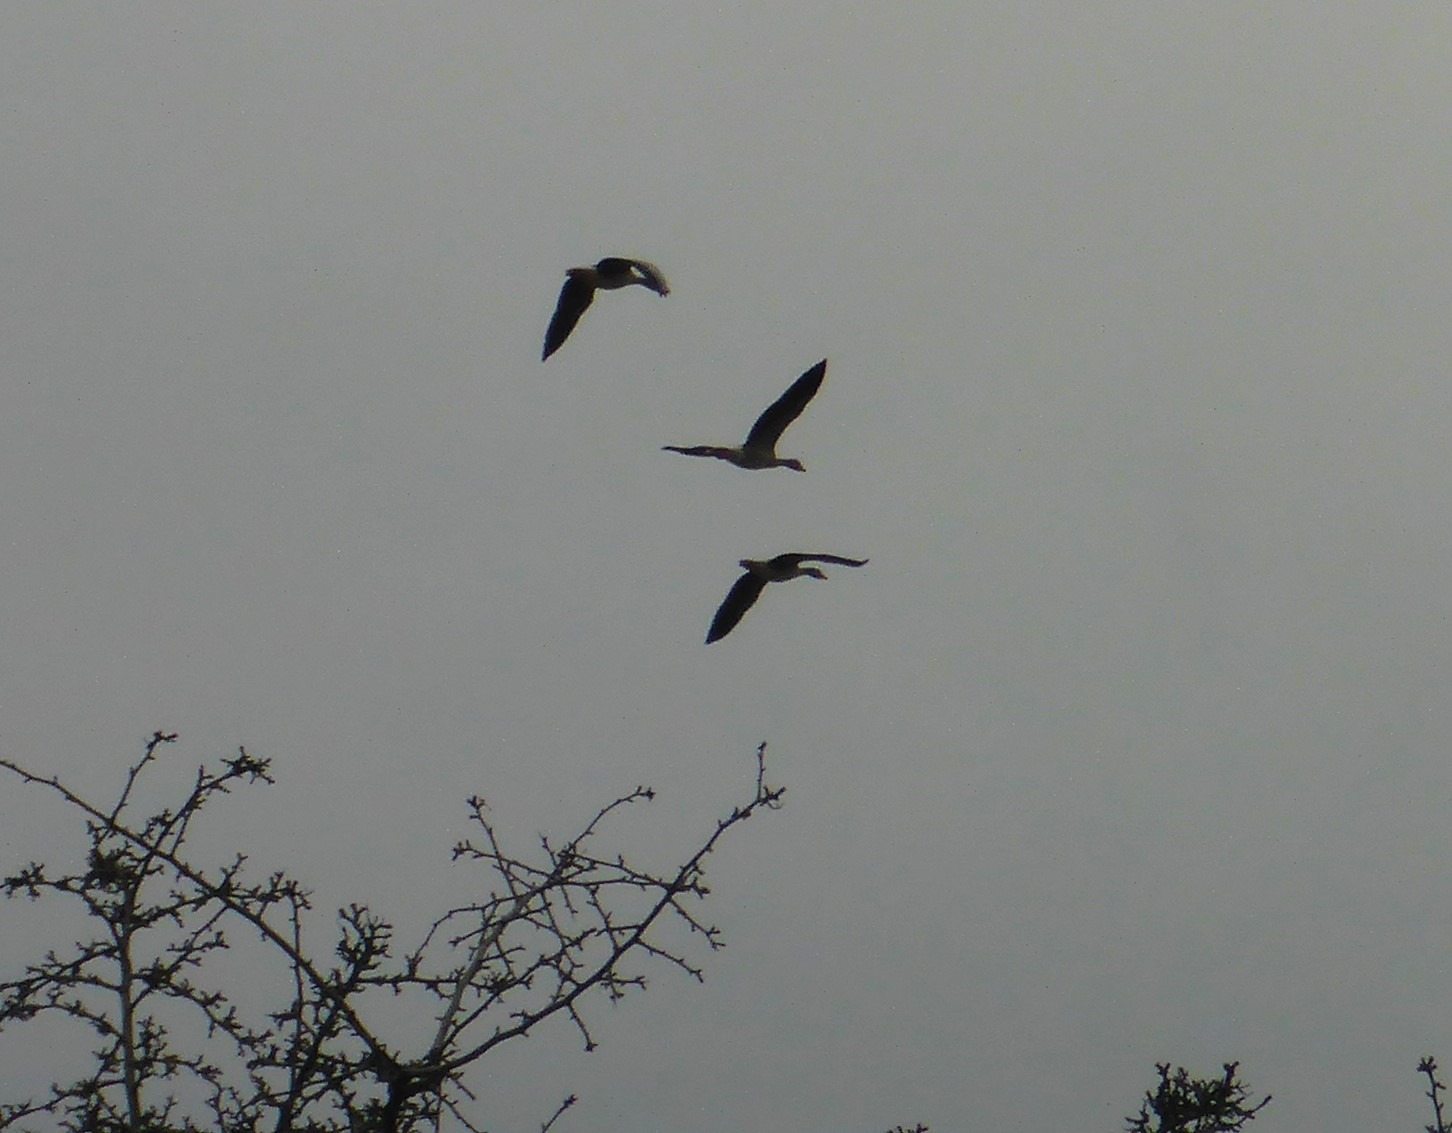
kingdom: Animalia
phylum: Chordata
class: Aves
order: Anseriformes
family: Anatidae
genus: Anser
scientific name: Anser anser
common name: Grågås
